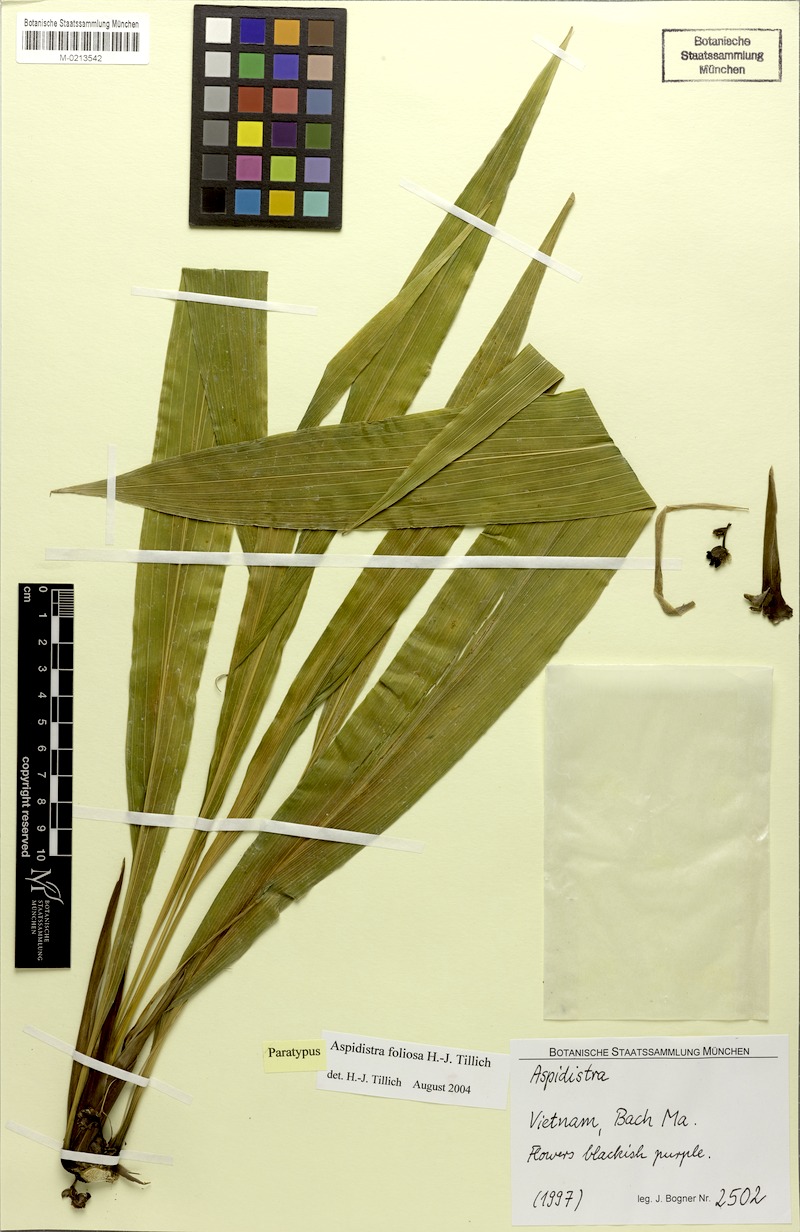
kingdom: Plantae
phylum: Tracheophyta
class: Liliopsida
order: Asparagales
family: Asparagaceae
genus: Aspidistra
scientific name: Aspidistra foliosa
